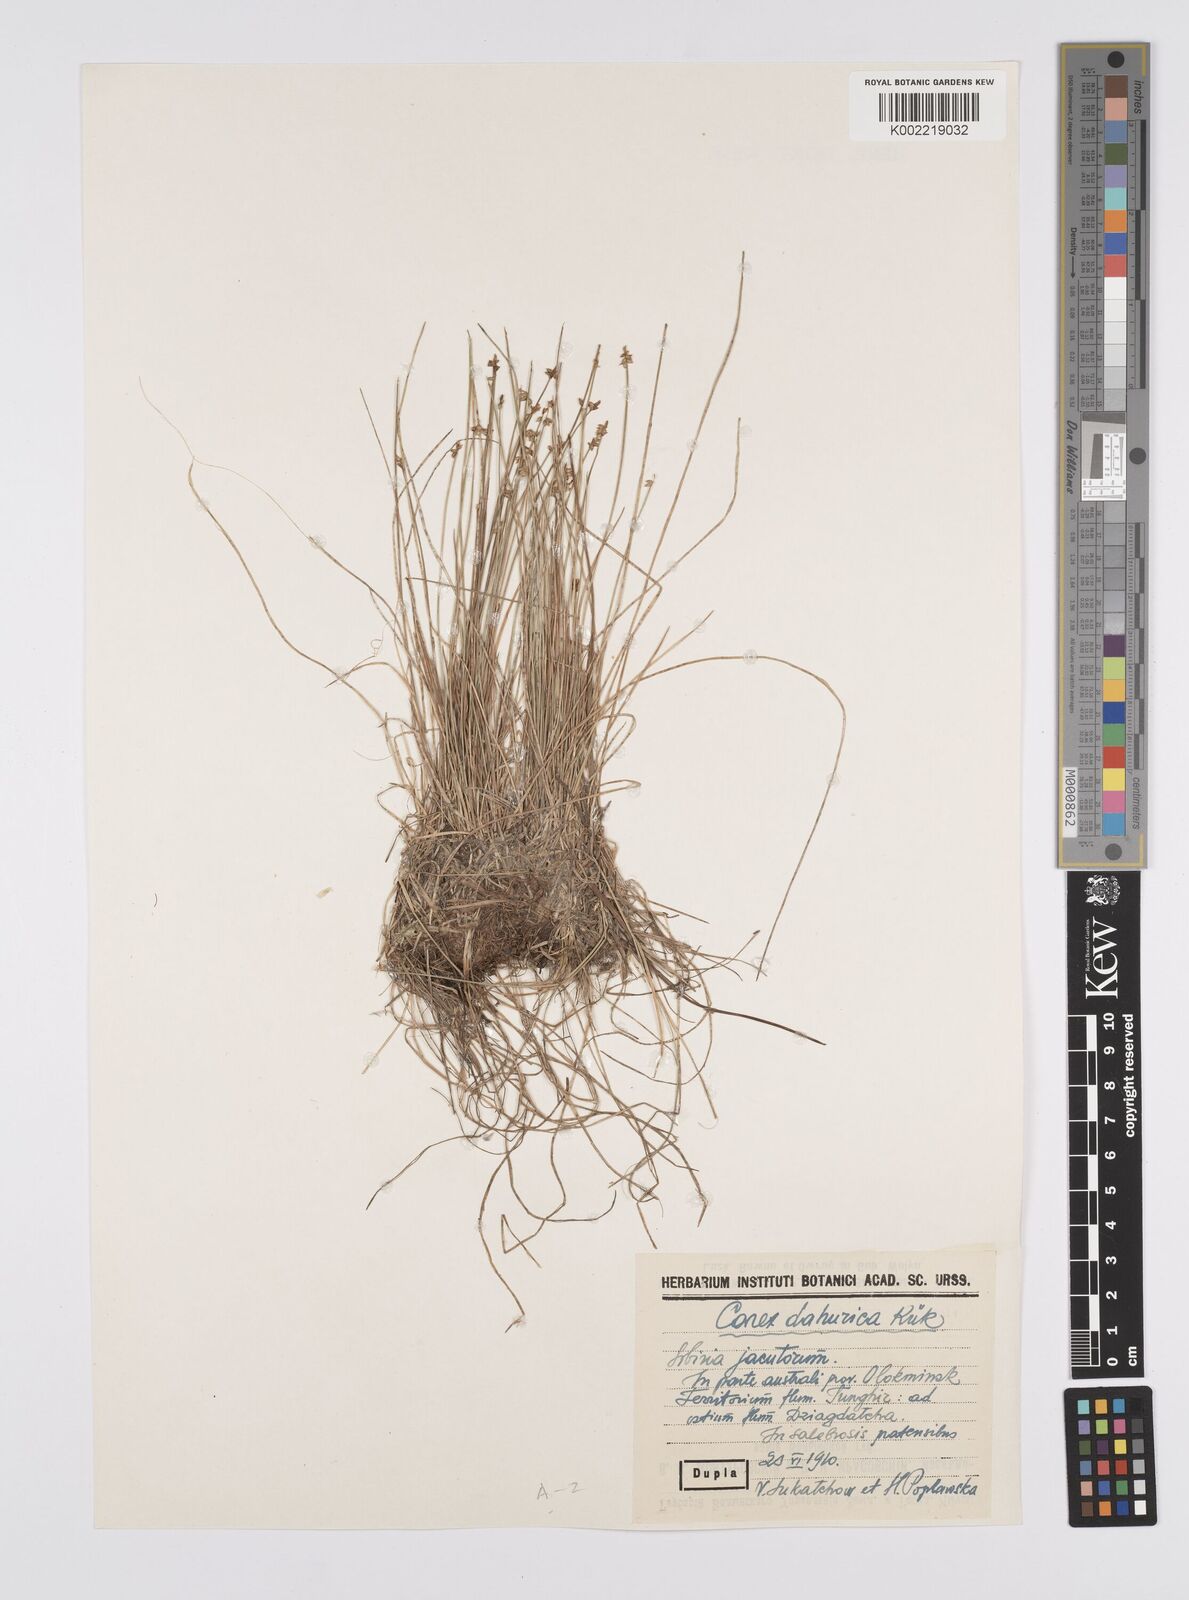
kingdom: Plantae
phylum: Tracheophyta
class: Liliopsida
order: Poales
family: Cyperaceae
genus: Carex
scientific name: Carex dahurica
